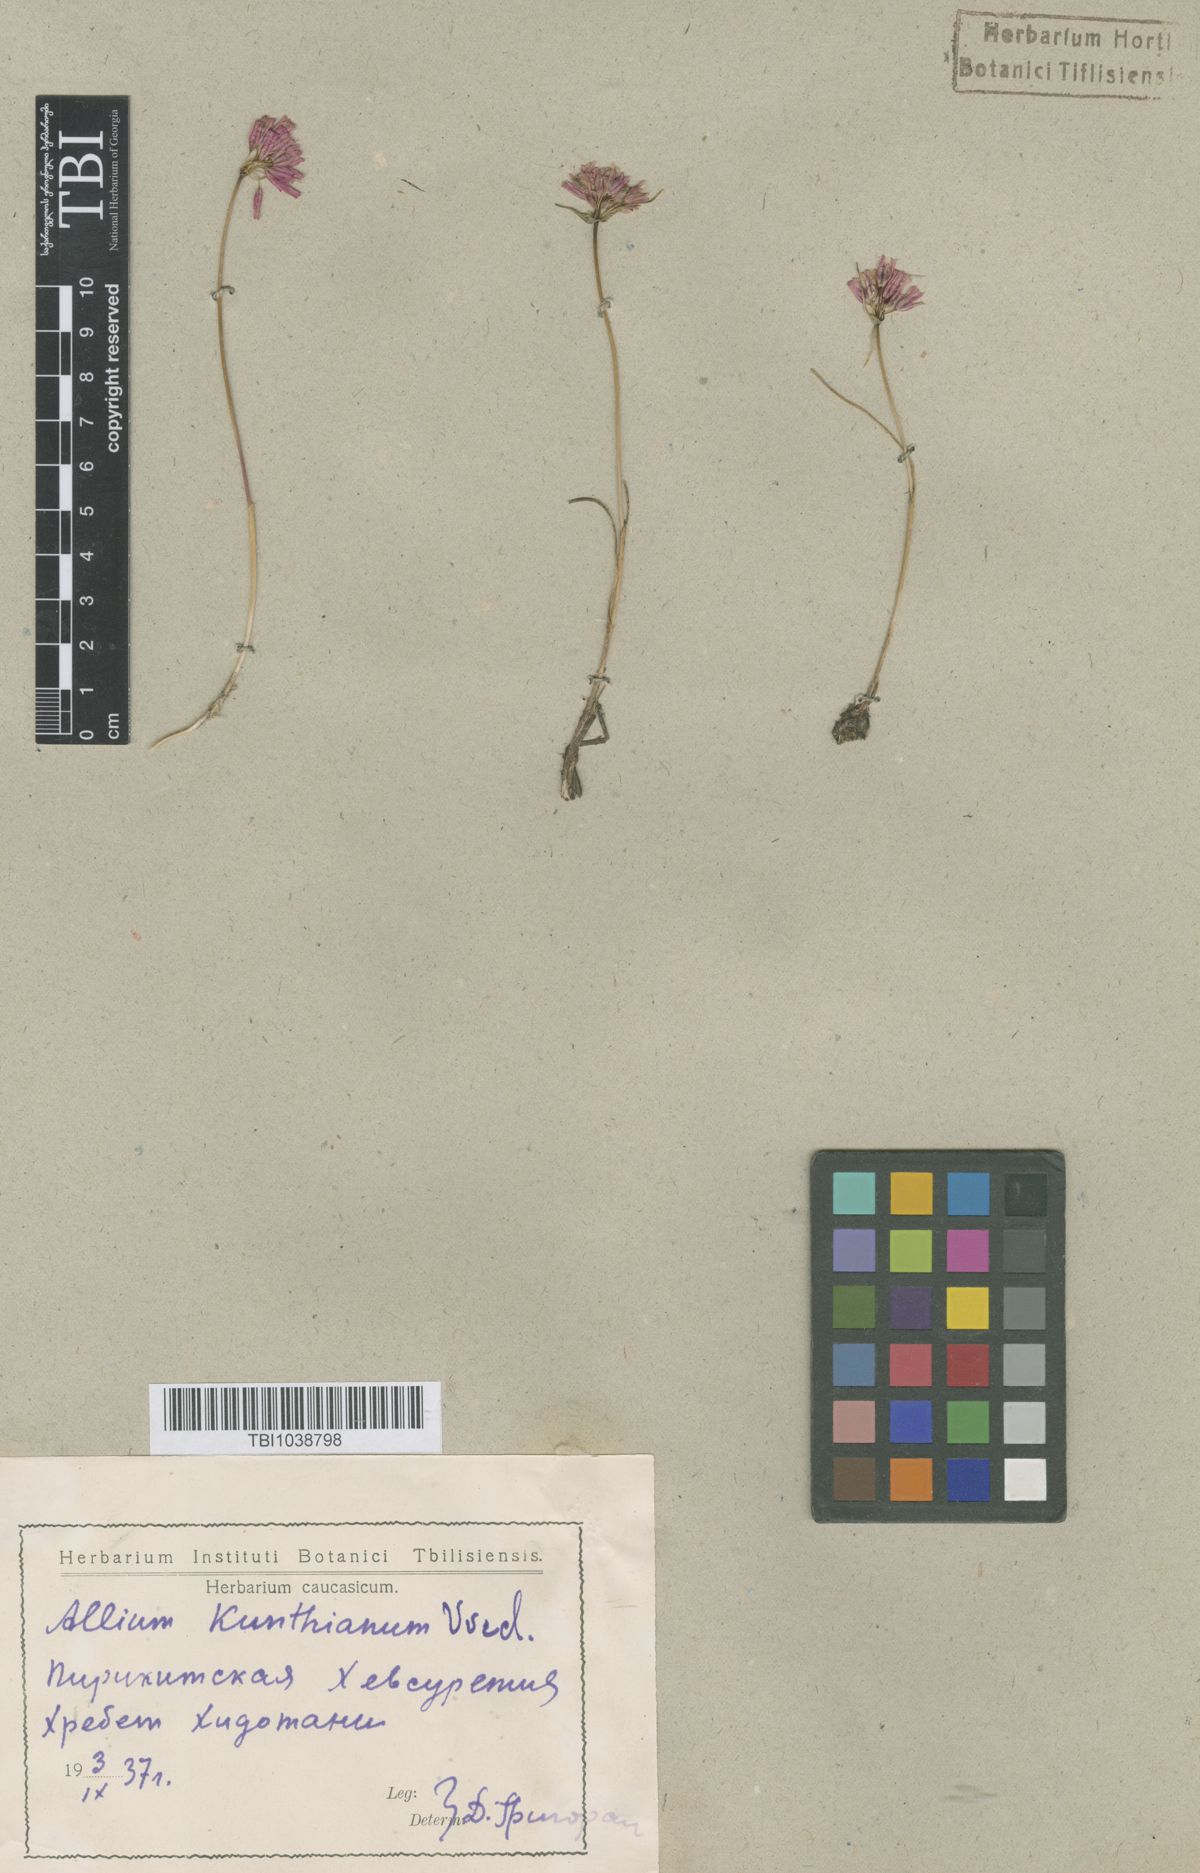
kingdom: Plantae
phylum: Tracheophyta
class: Liliopsida
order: Asparagales
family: Amaryllidaceae
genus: Allium
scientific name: Allium kunthianum
